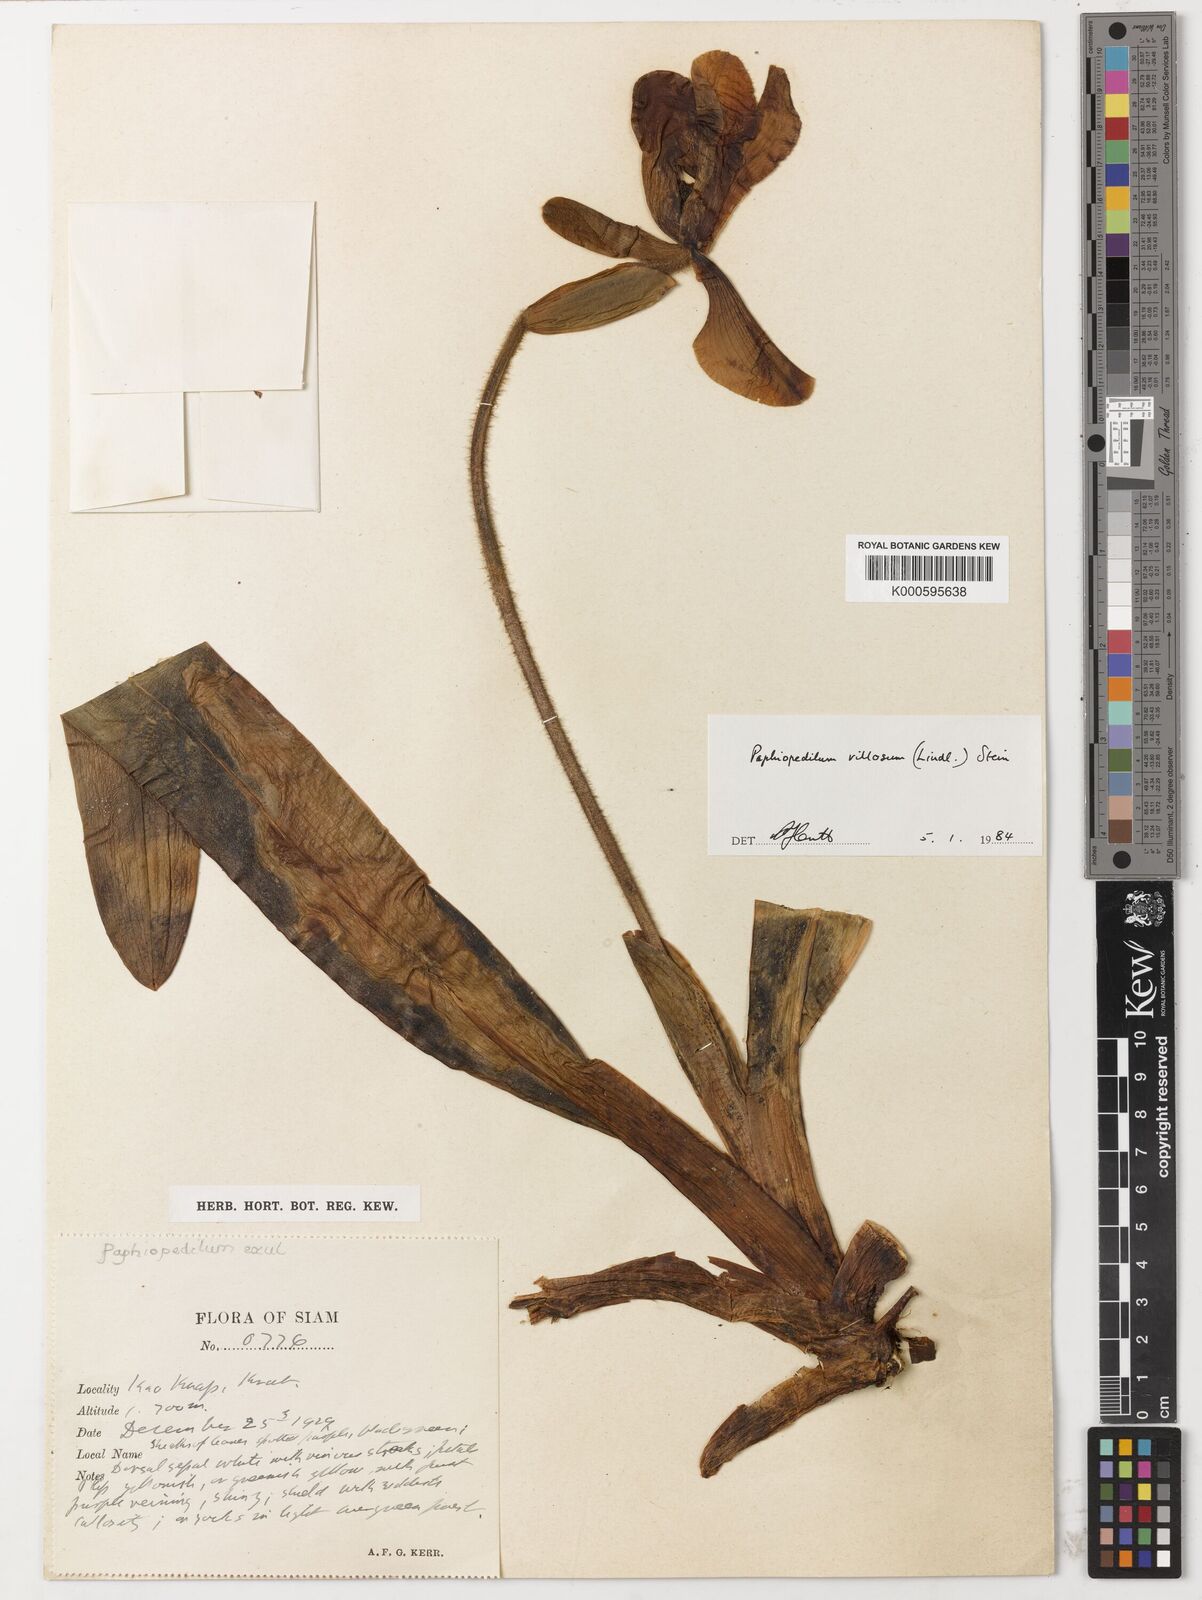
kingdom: Plantae
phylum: Tracheophyta
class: Liliopsida
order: Asparagales
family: Orchidaceae
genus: Paphiopedilum
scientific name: Paphiopedilum villosum
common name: Villose paphiopedilum
